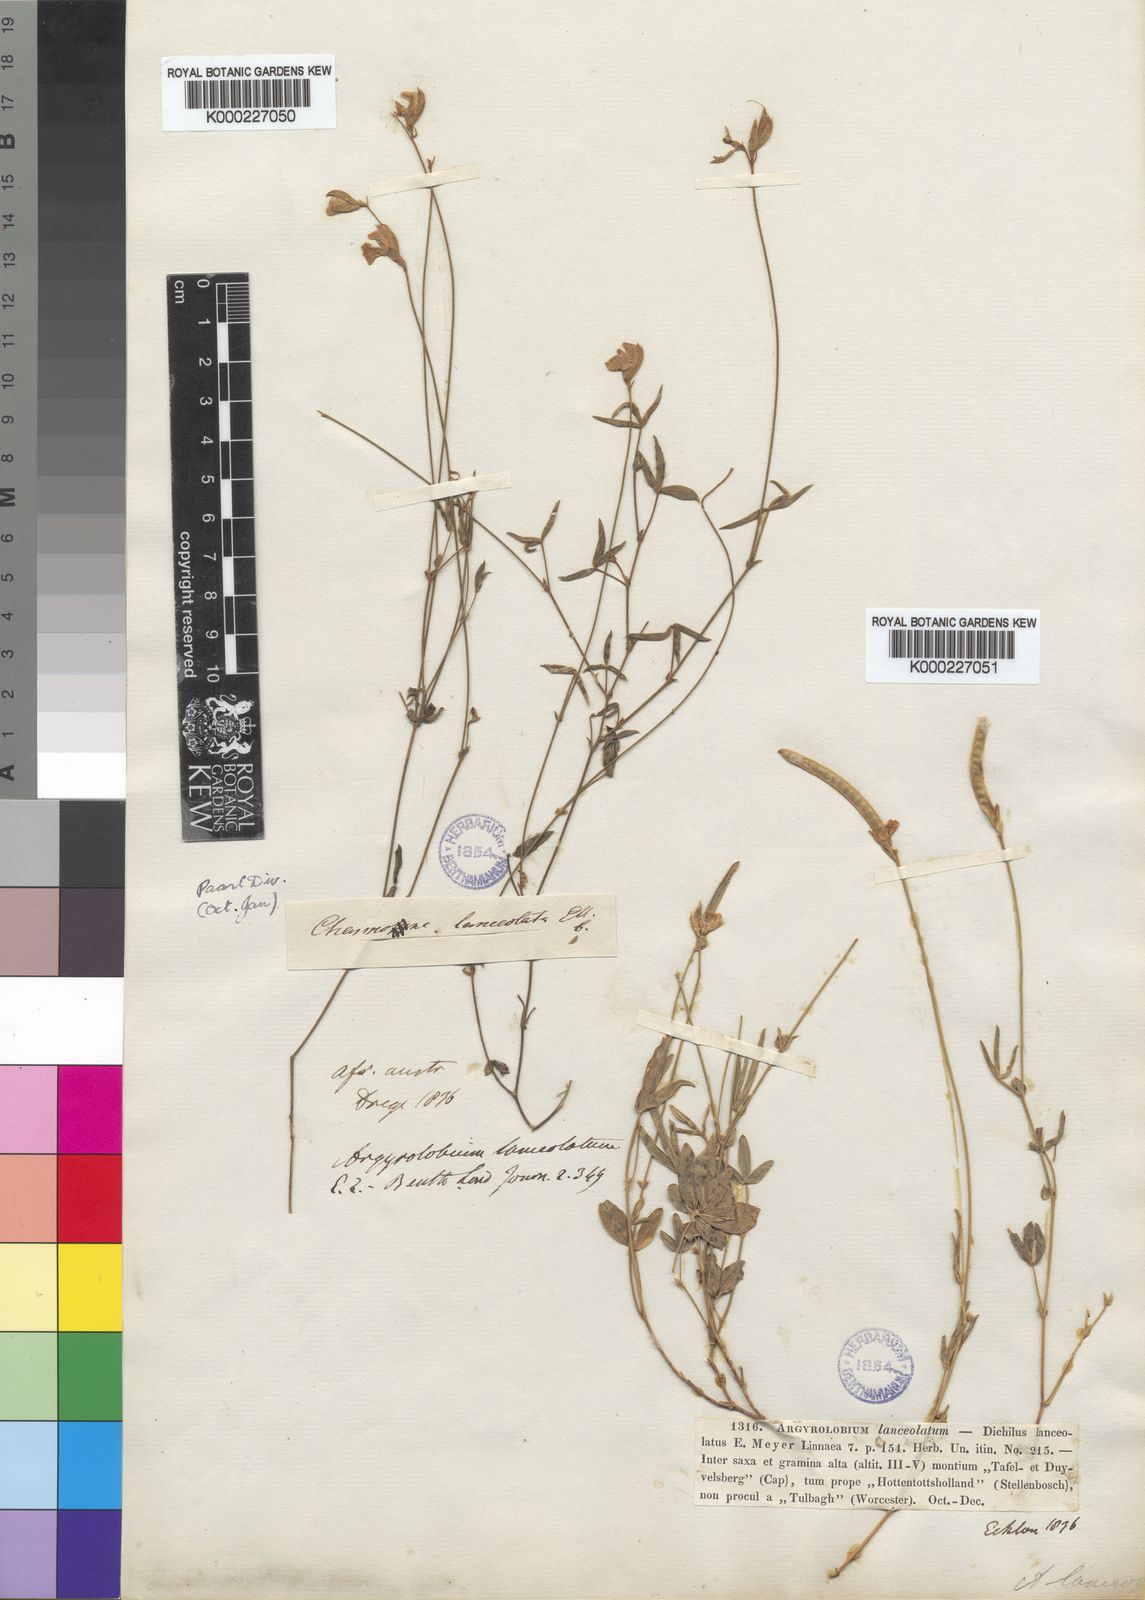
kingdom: Plantae
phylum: Tracheophyta
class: Magnoliopsida
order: Fabales
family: Fabaceae
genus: Argyrolobium
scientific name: Argyrolobium lunare
